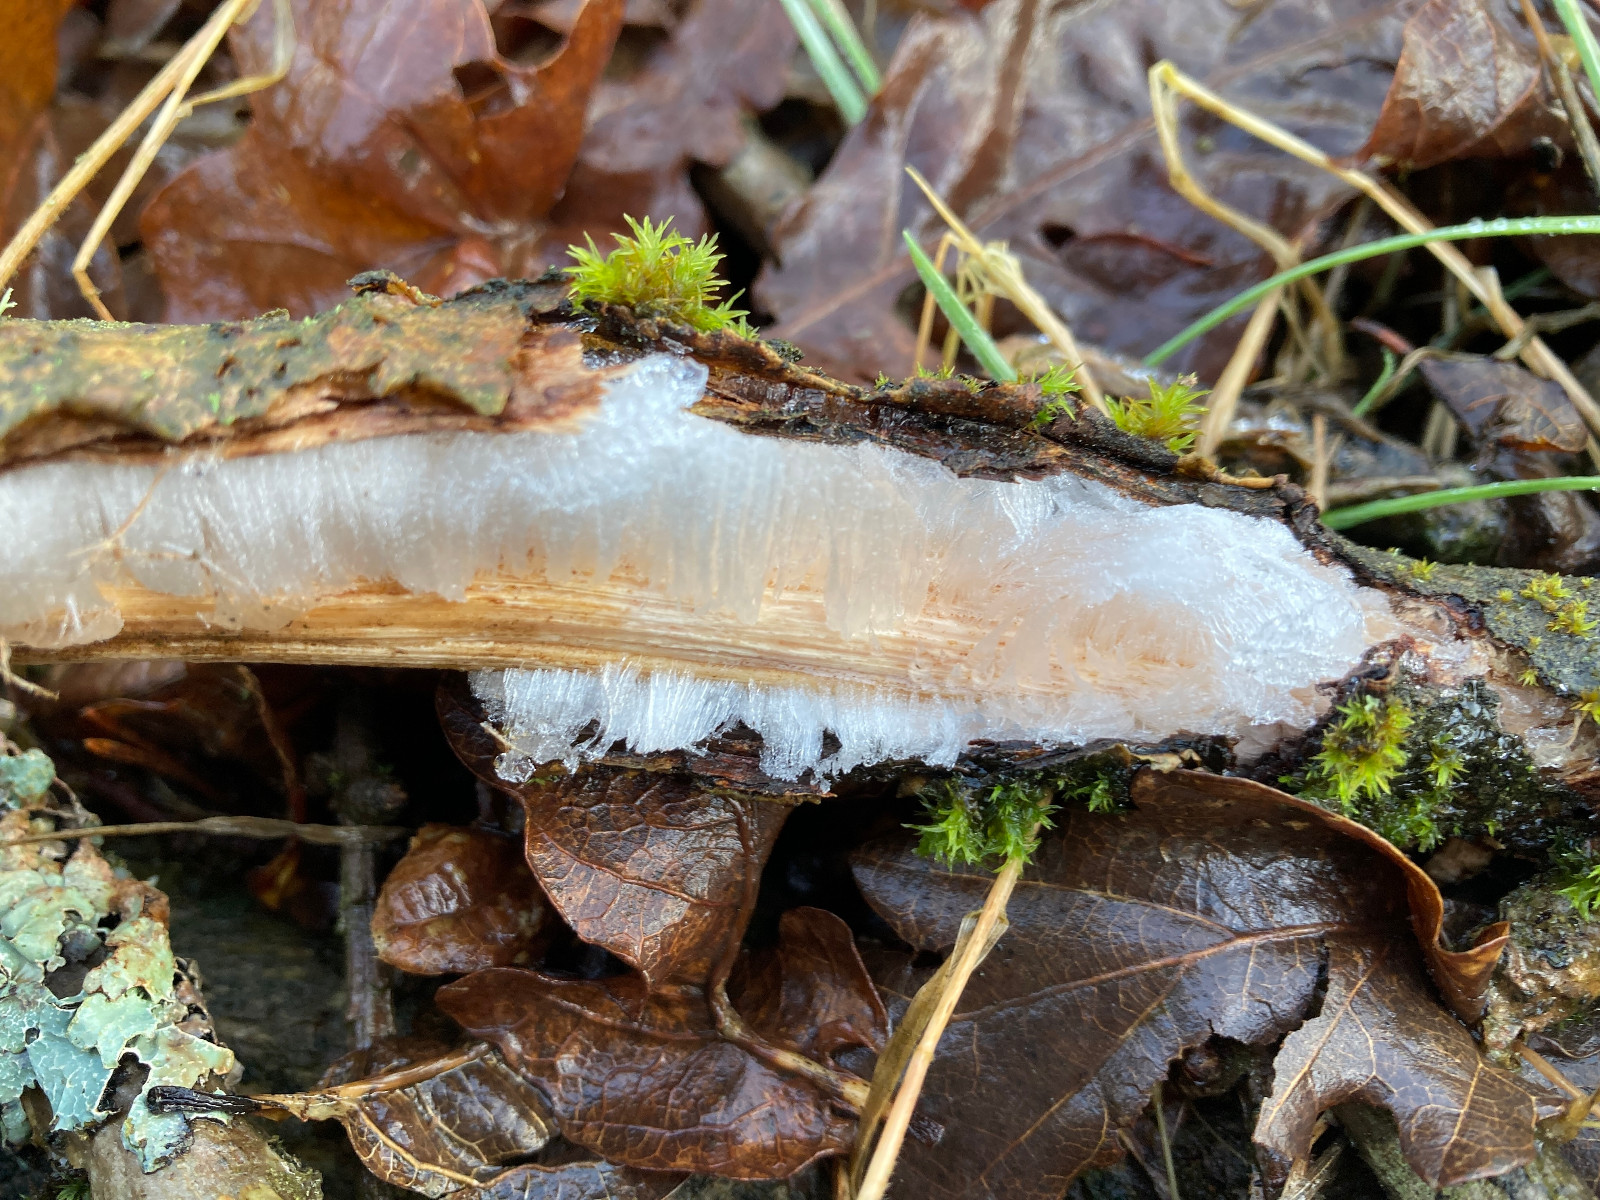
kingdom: Fungi
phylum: Basidiomycota
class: Tremellomycetes
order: Tremellales
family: Exidiaceae
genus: Exidiopsis
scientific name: Exidiopsis effusa
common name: smuk bævrehinde
